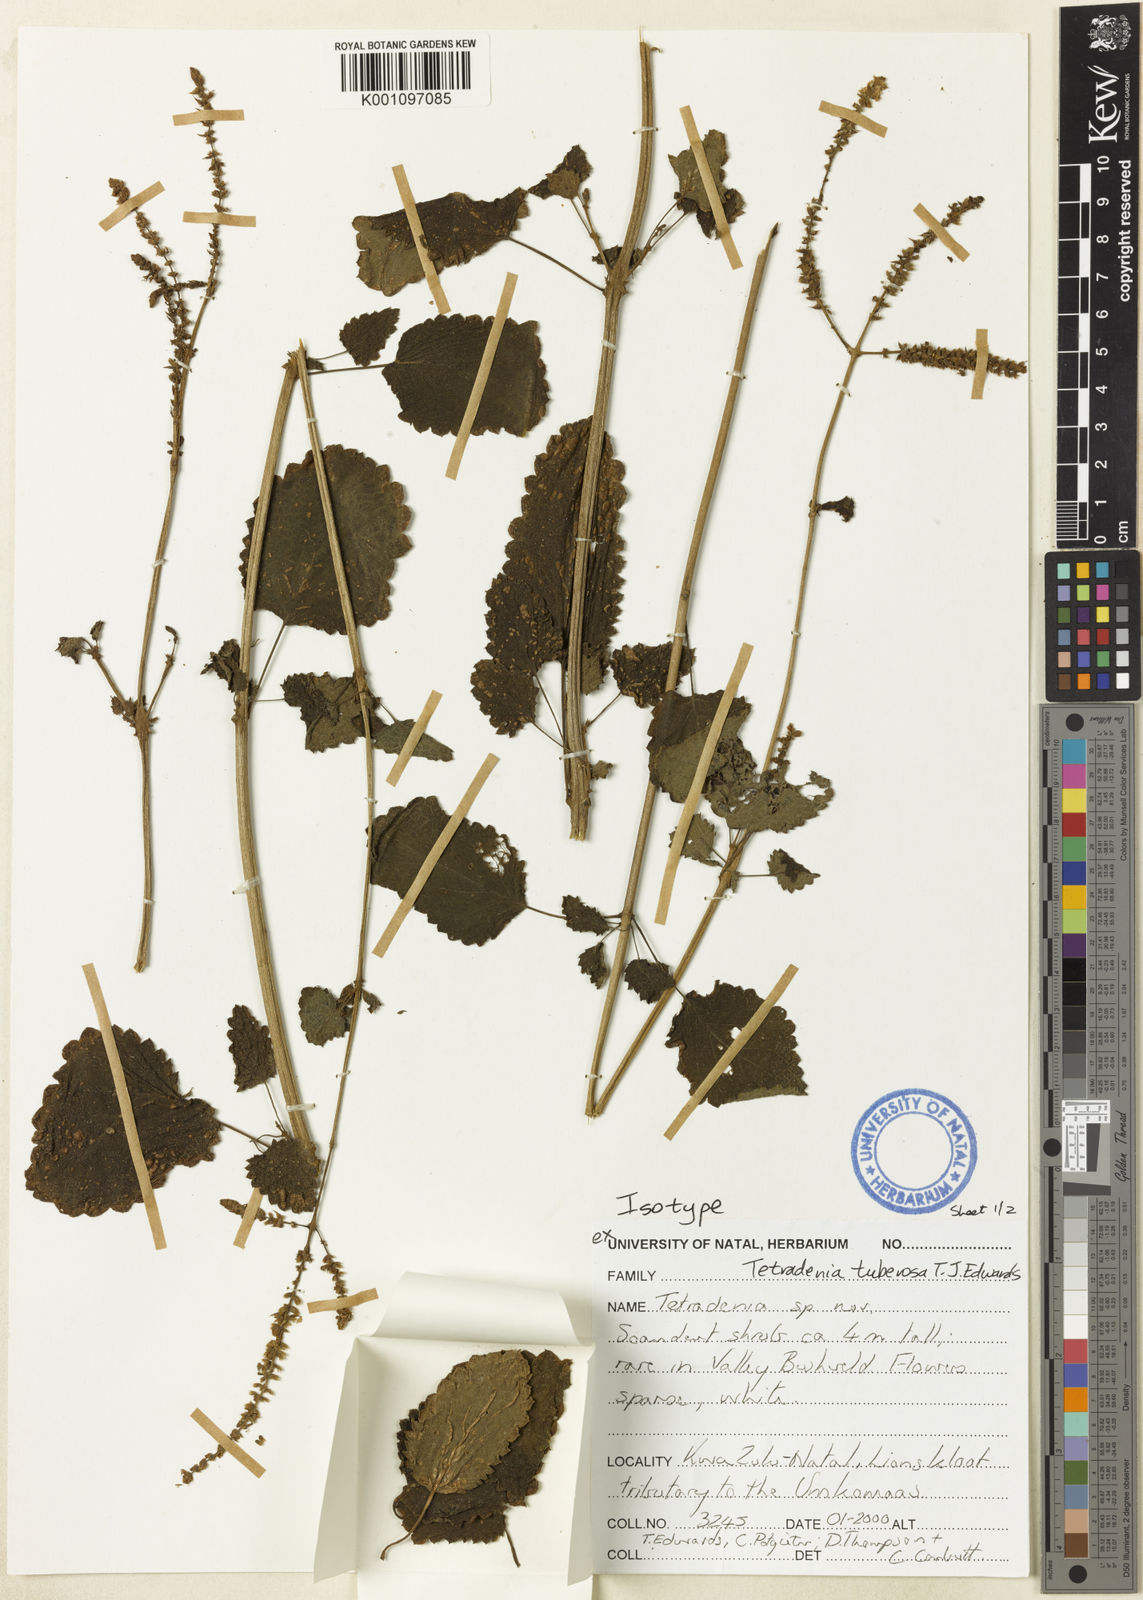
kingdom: Plantae
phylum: Tracheophyta
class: Magnoliopsida
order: Lamiales
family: Lamiaceae
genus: Tetradenia
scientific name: Tetradenia tuberosa
